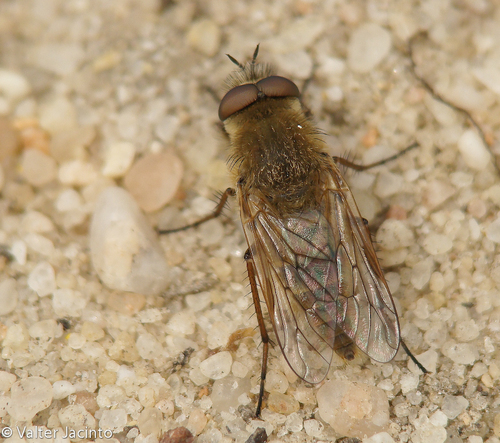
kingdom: Animalia
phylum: Arthropoda
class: Insecta
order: Diptera
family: Therevidae
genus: Thereva
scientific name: Thereva hispanica
